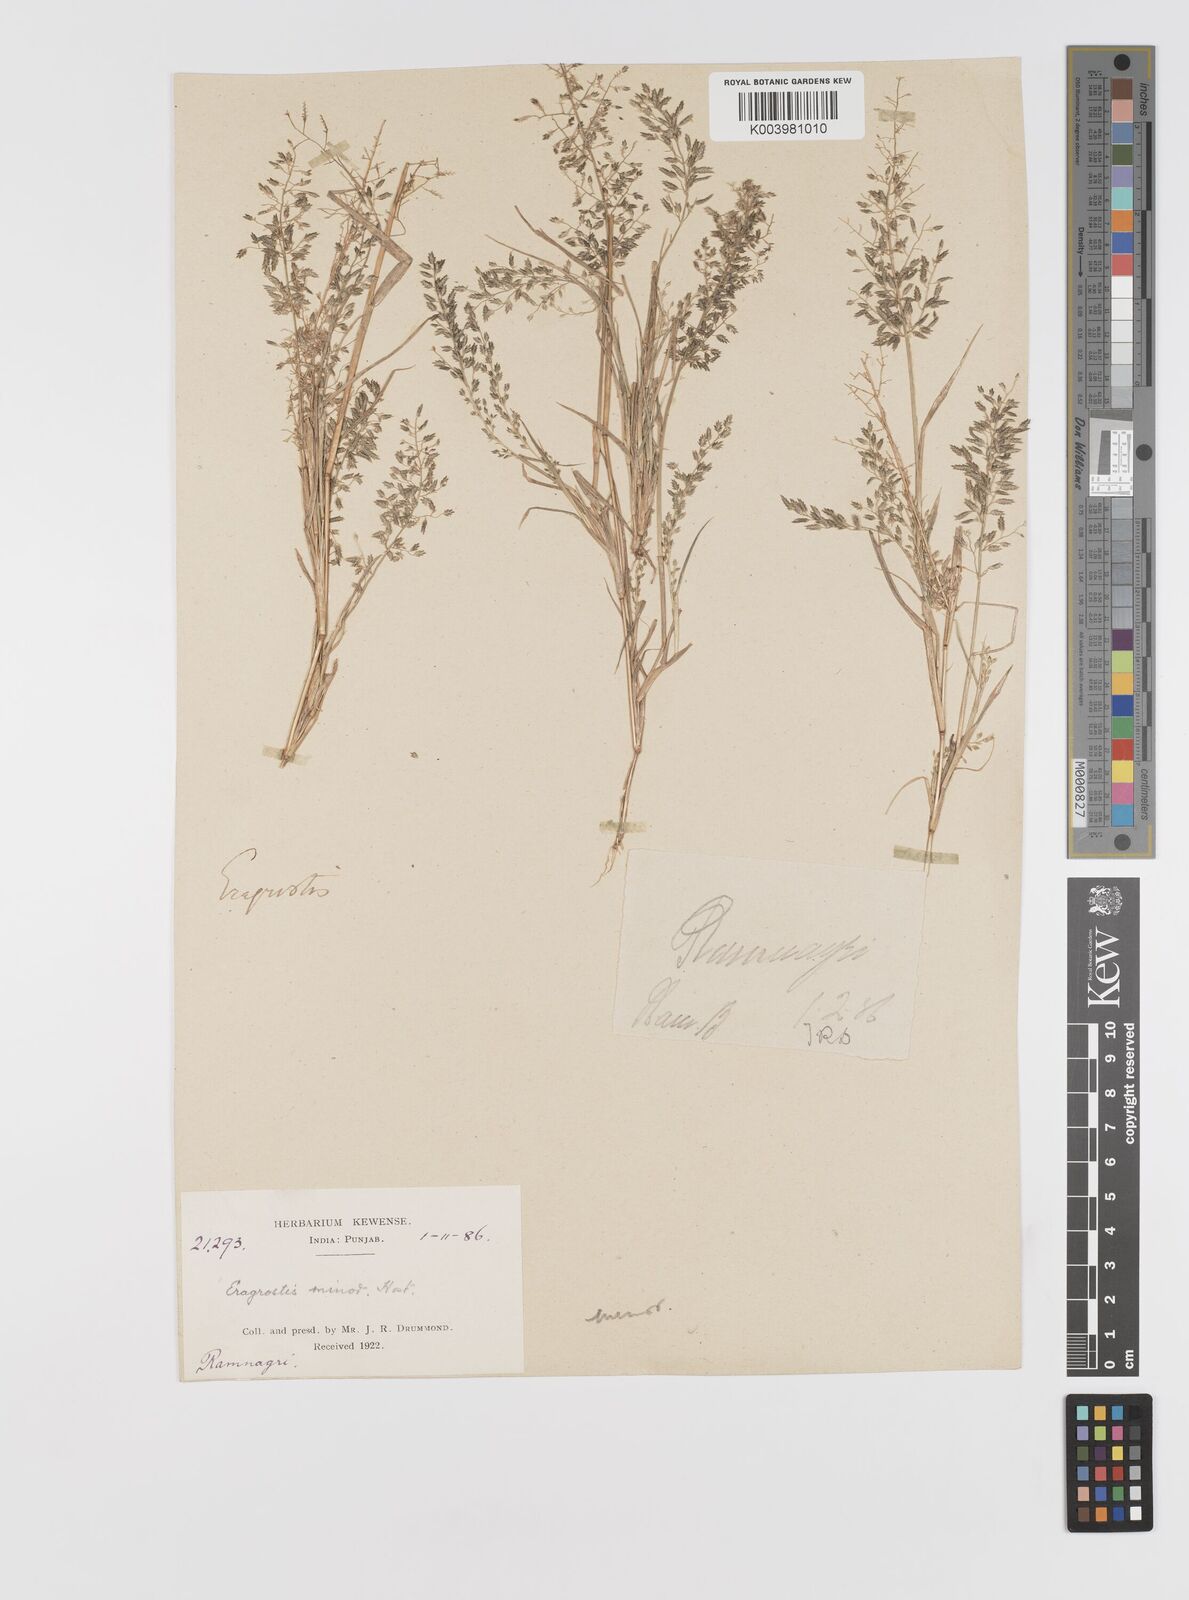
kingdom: Plantae
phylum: Tracheophyta
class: Liliopsida
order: Poales
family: Poaceae
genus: Eragrostis
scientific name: Eragrostis minor
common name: Small love-grass
